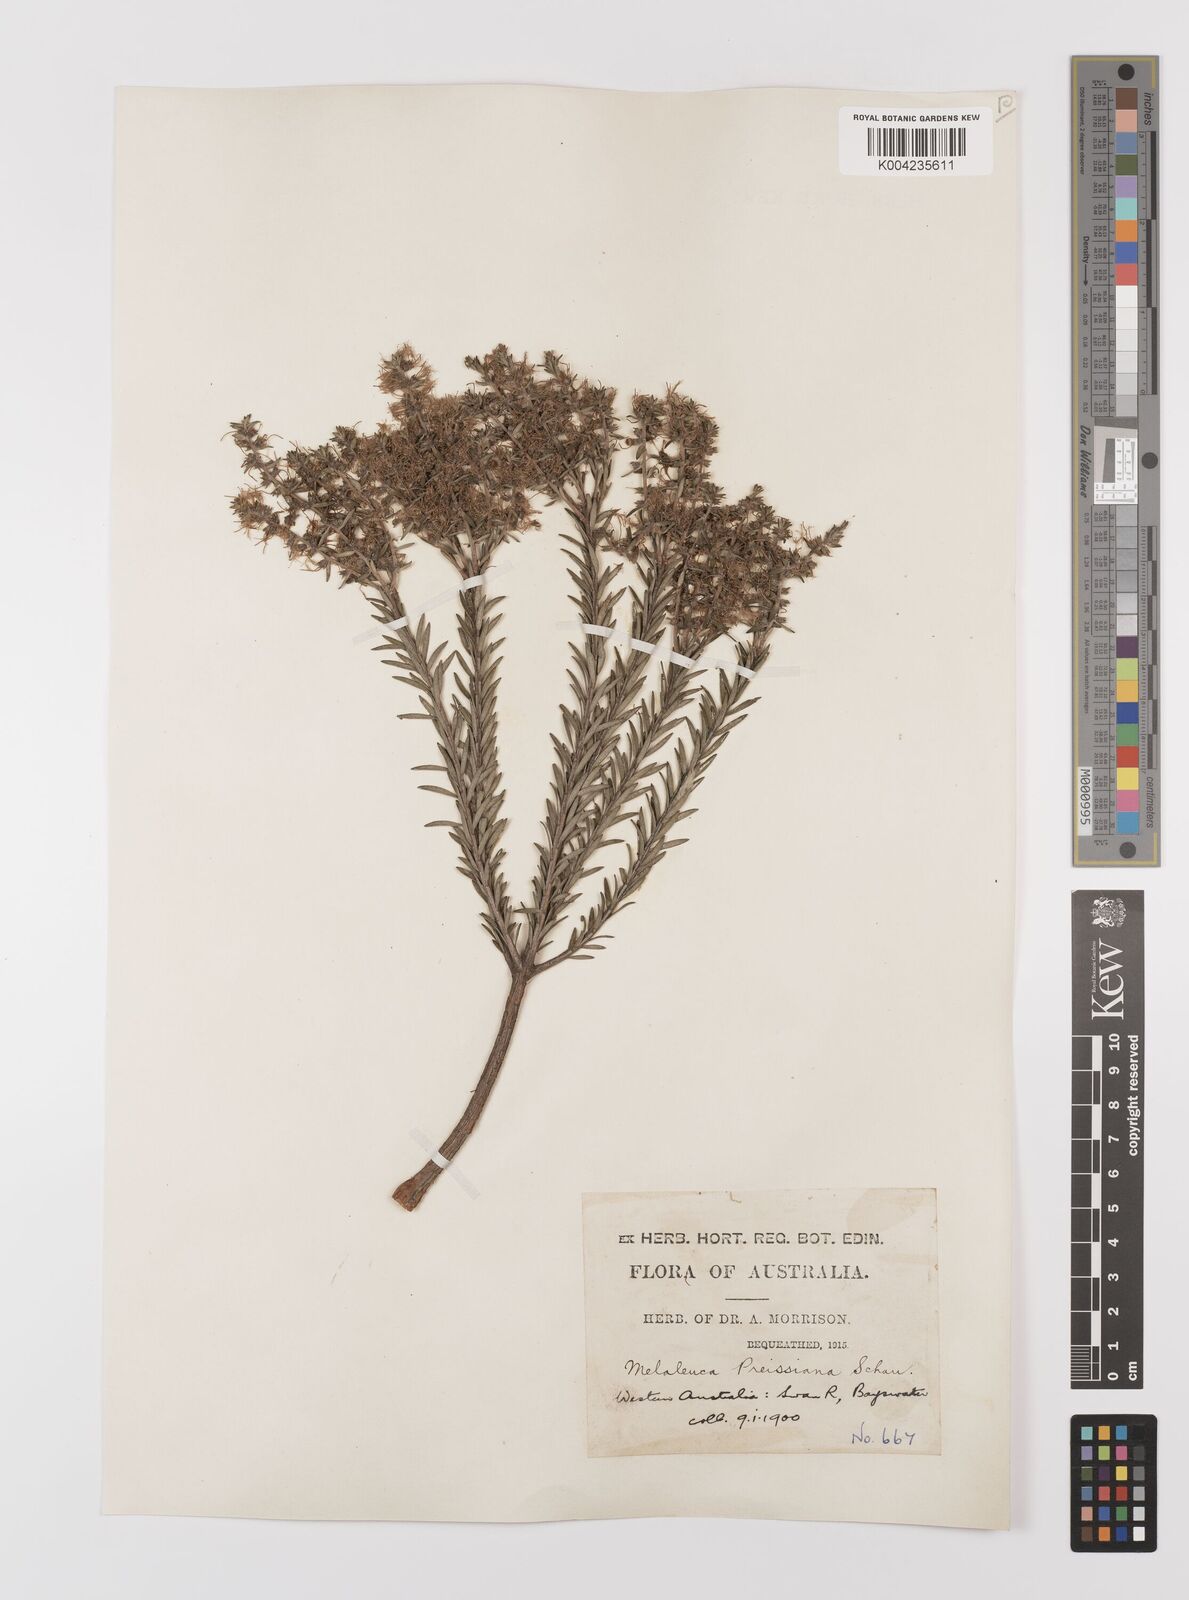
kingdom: Plantae
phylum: Tracheophyta
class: Magnoliopsida
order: Myrtales
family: Myrtaceae
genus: Melaleuca
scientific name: Melaleuca preissiana
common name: Preiss's paperbark
